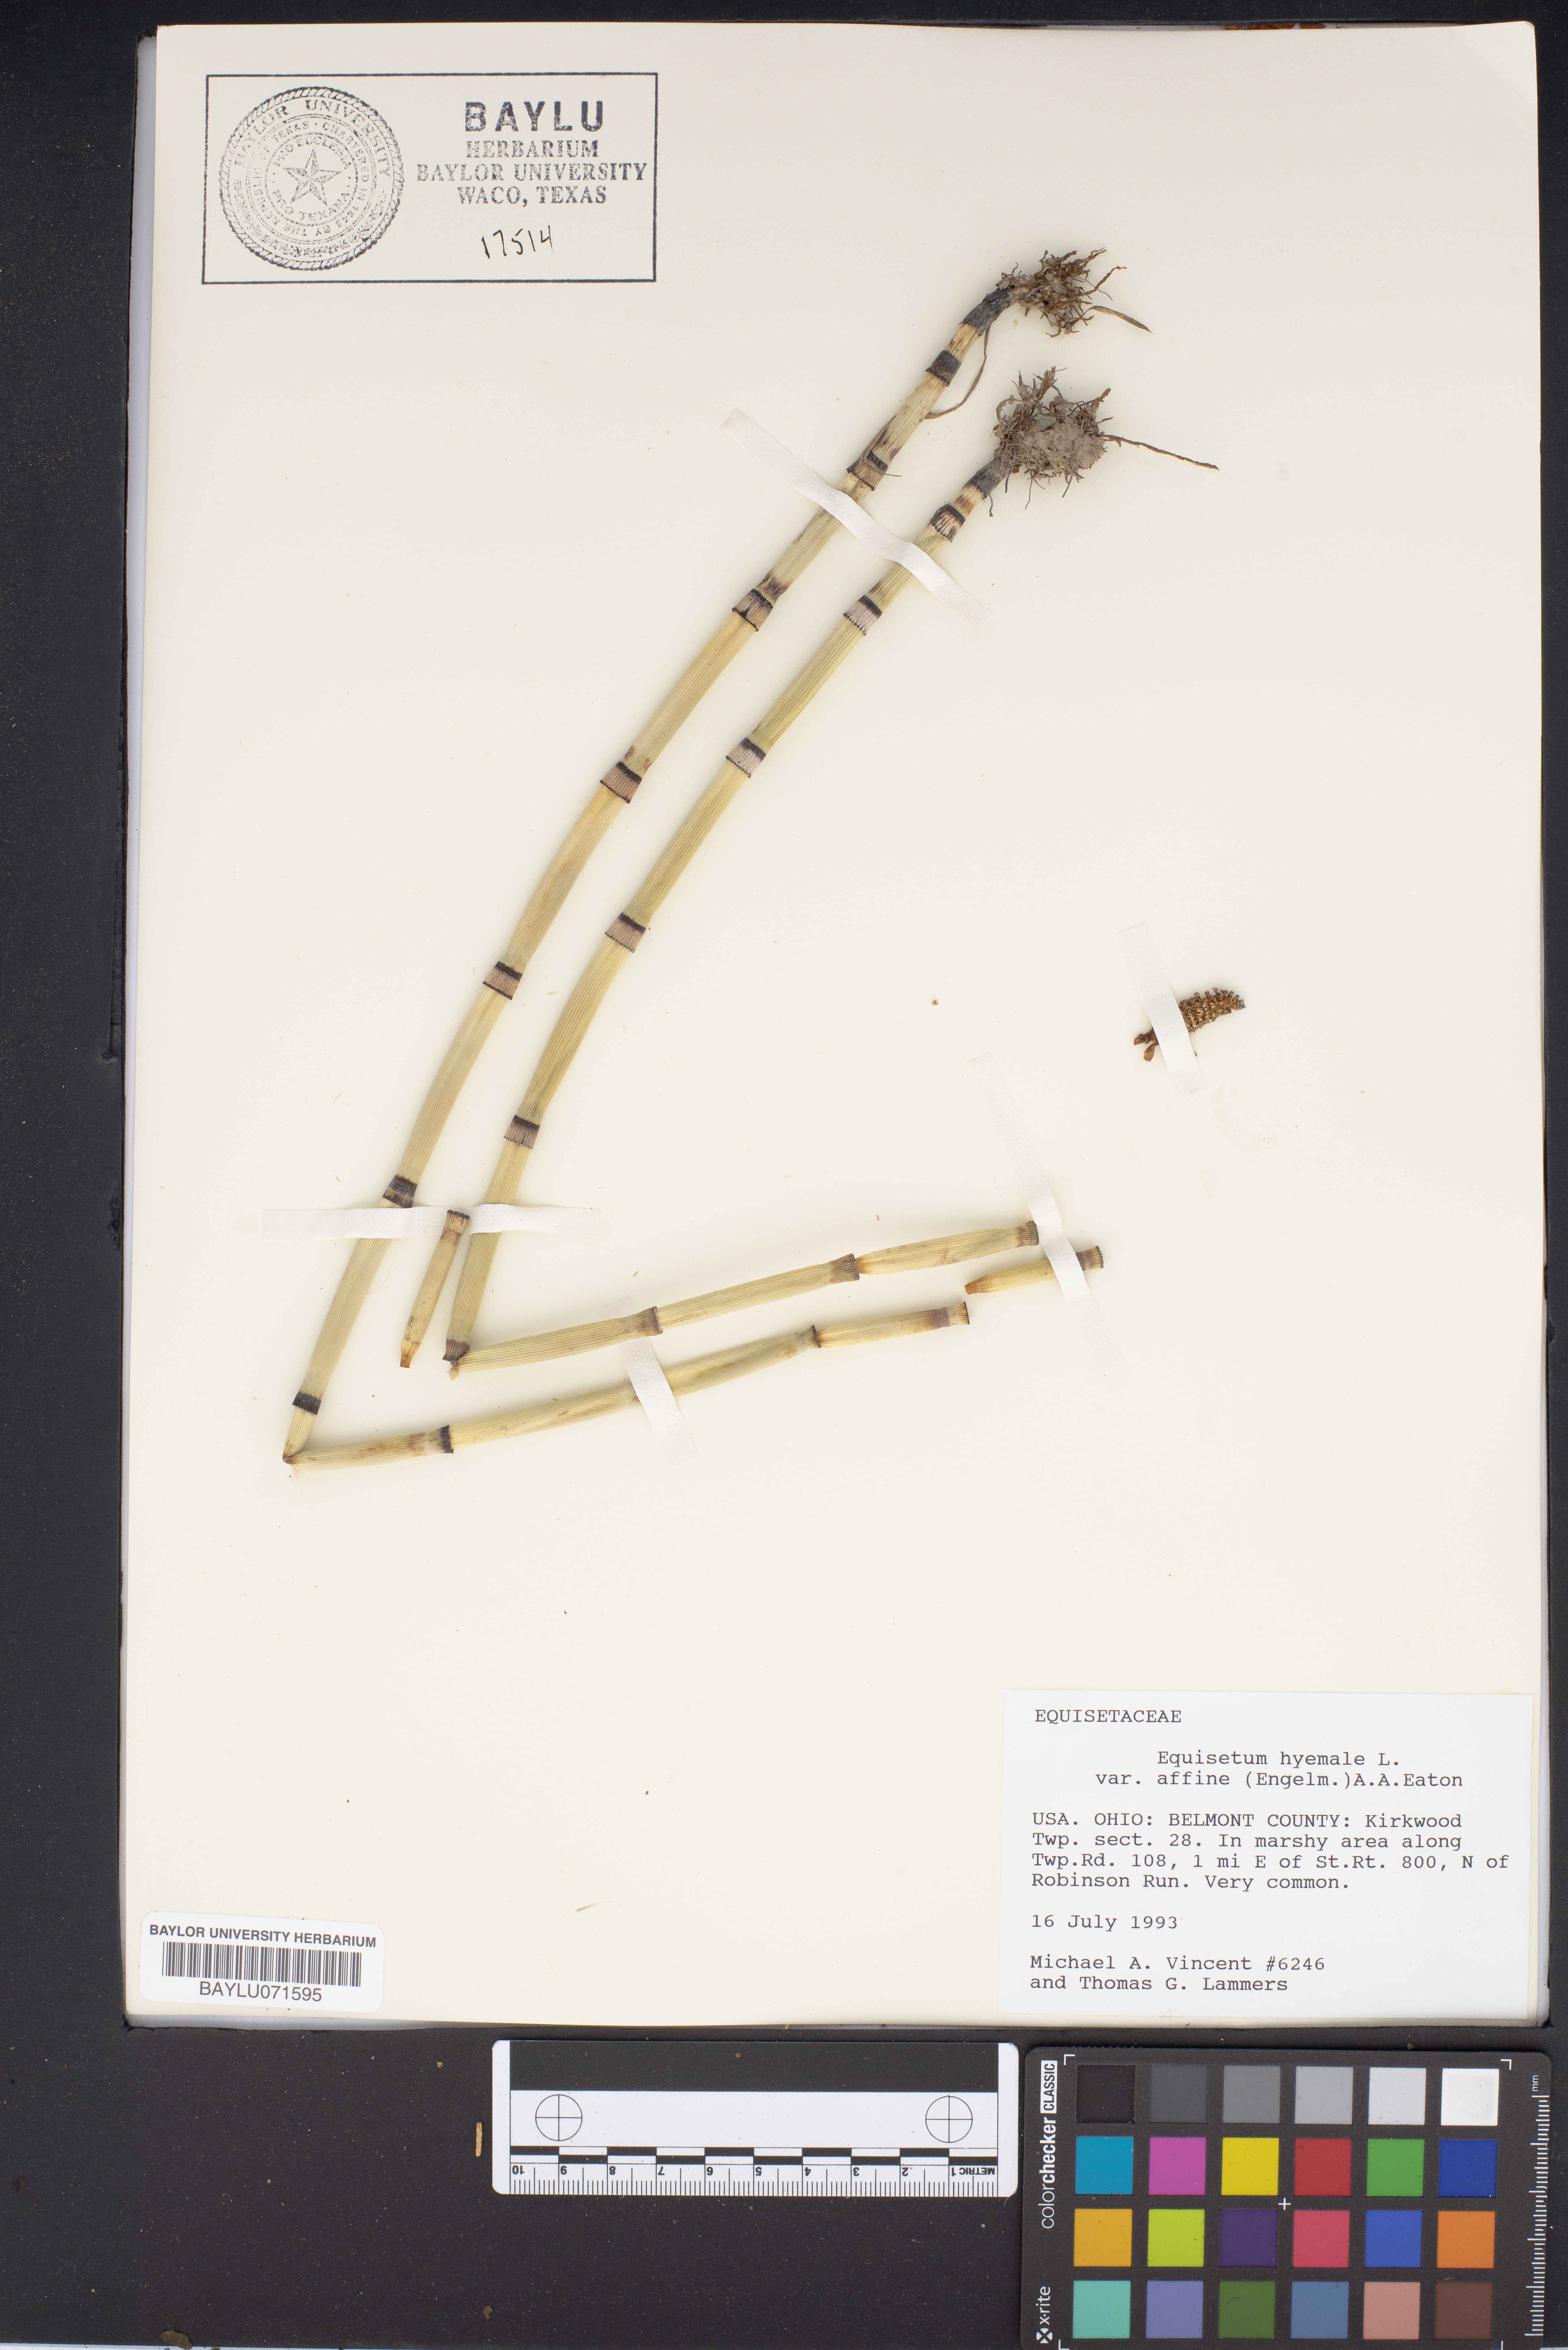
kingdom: Plantae
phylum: Tracheophyta
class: Polypodiopsida
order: Equisetales
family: Equisetaceae
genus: Equisetum
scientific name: Equisetum praealtum
